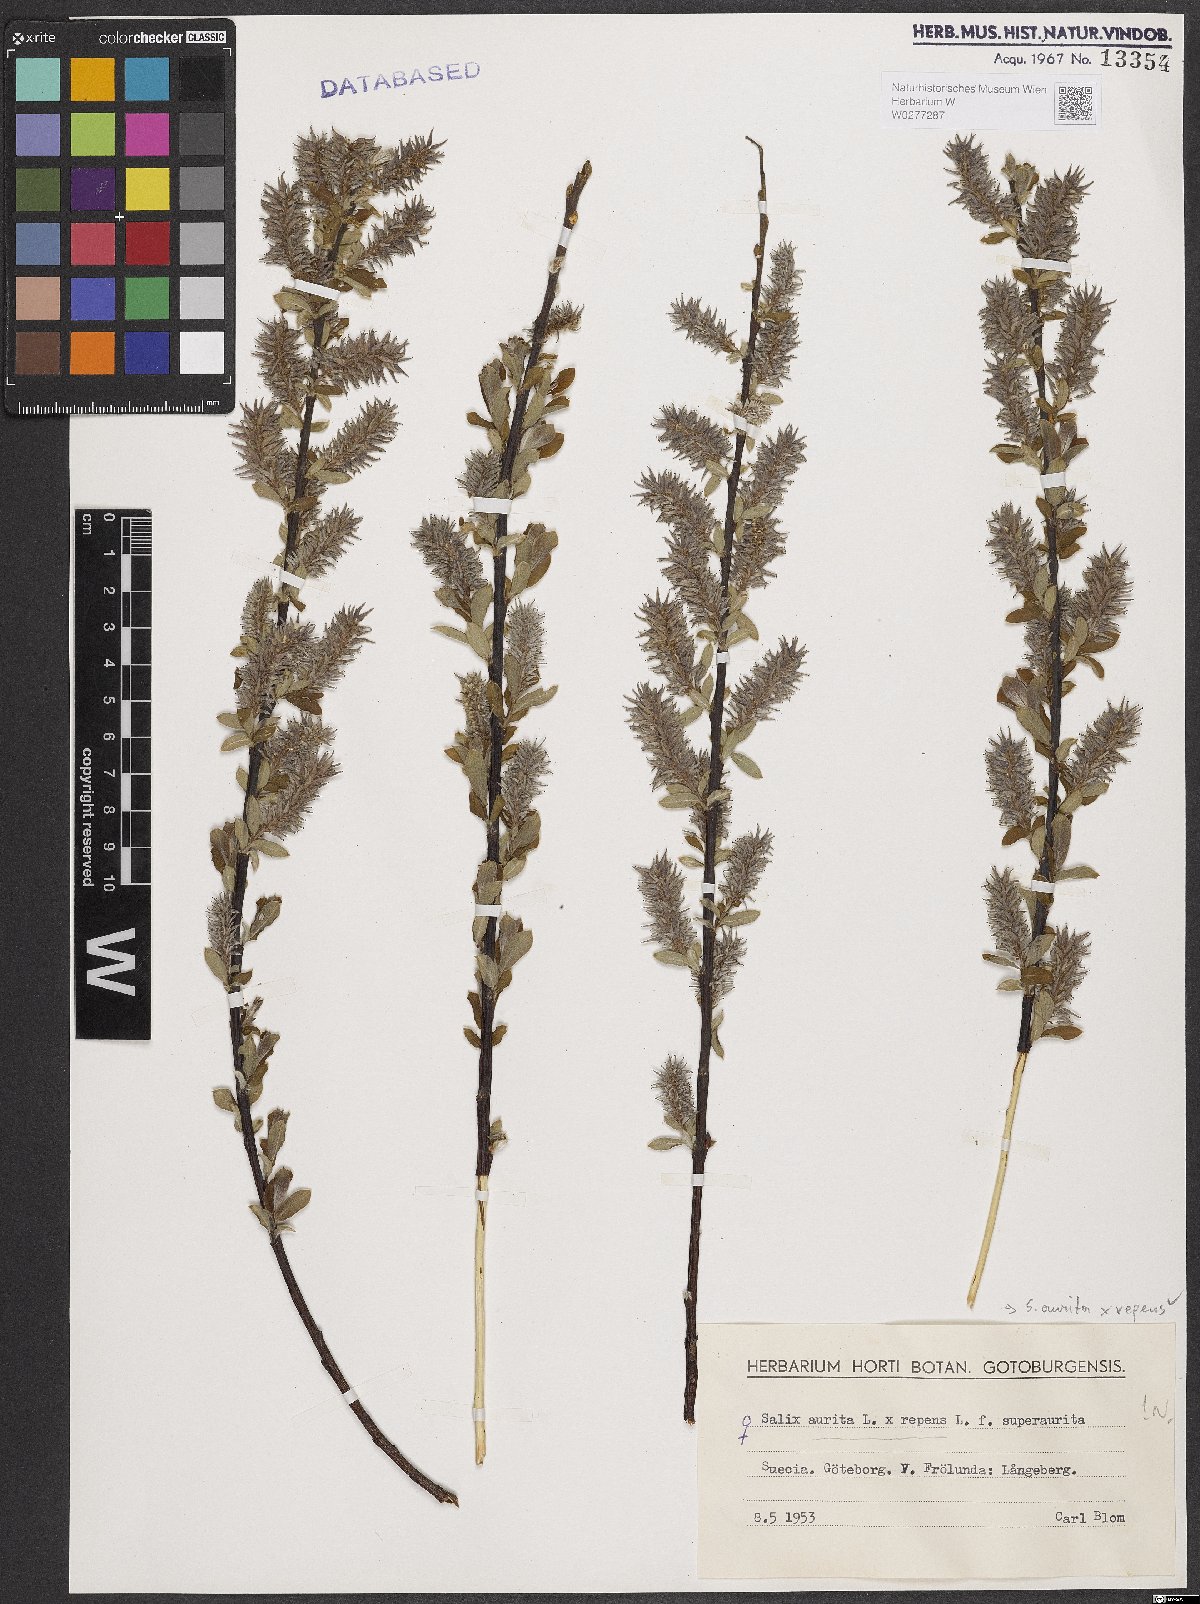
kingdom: Plantae
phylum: Tracheophyta
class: Magnoliopsida
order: Malpighiales
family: Salicaceae
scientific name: Salicaceae
